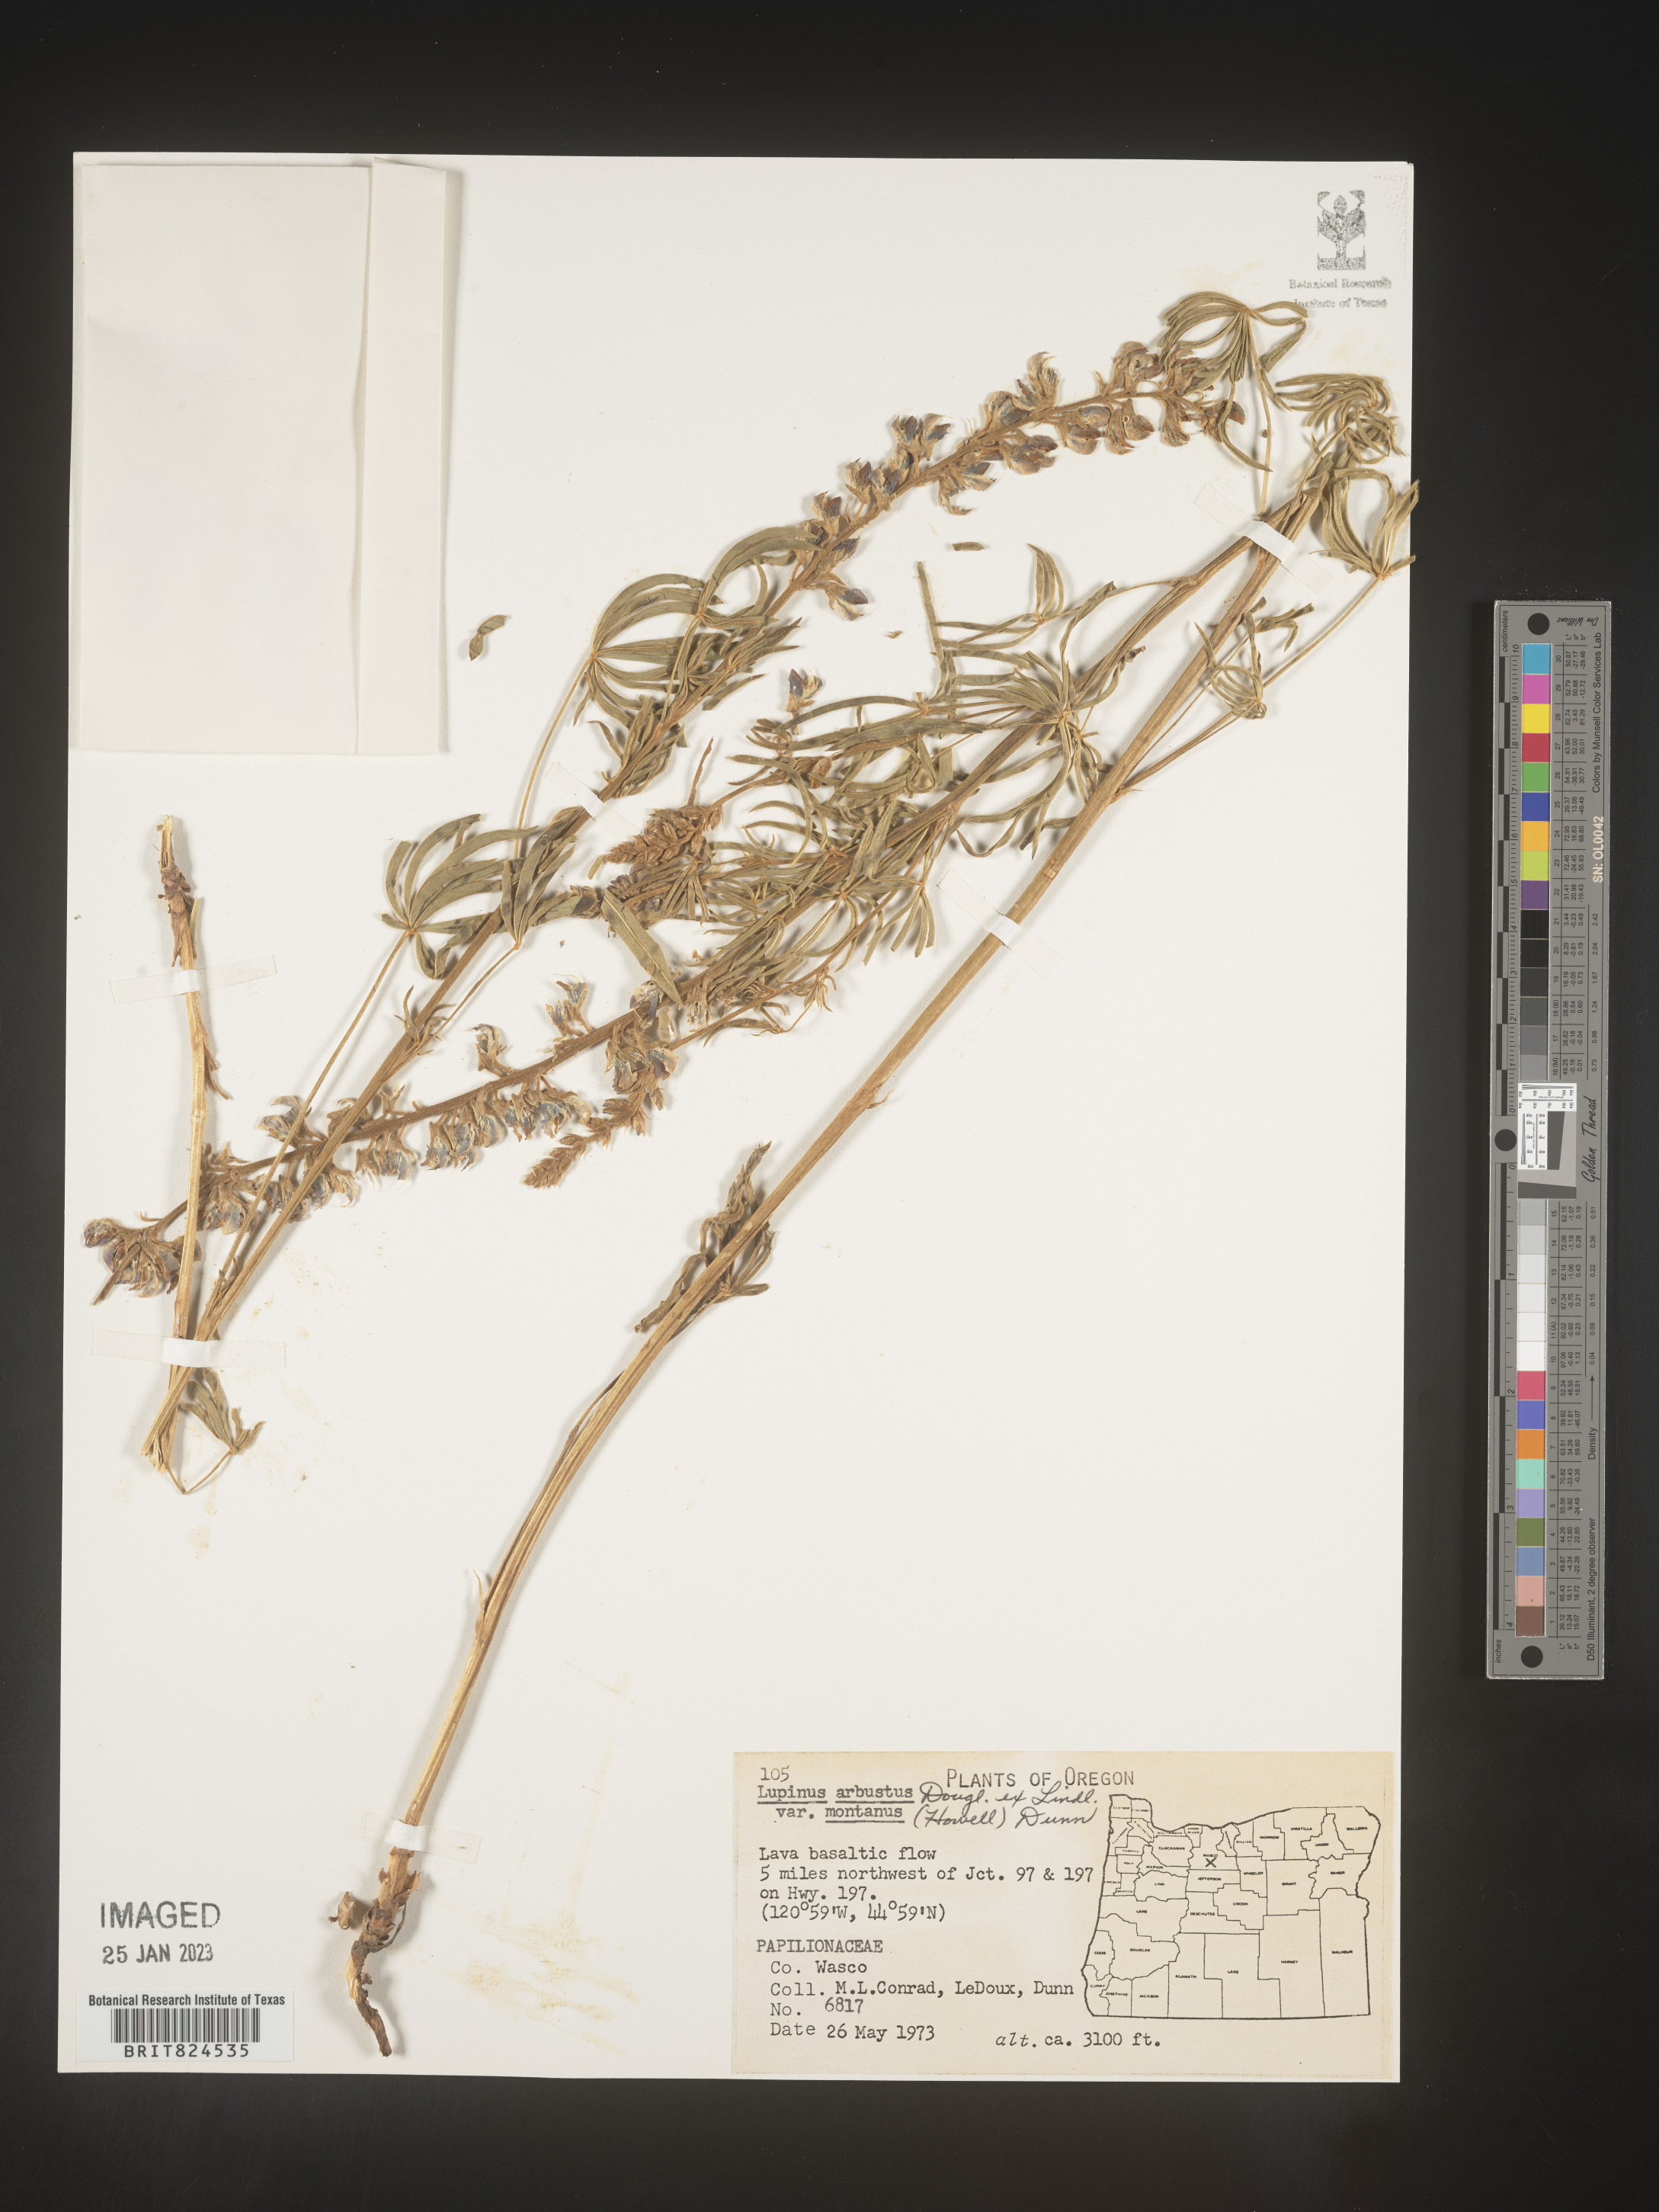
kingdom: Plantae
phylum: Tracheophyta
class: Magnoliopsida
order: Fabales
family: Fabaceae
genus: Lupinus
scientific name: Lupinus arbustus
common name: Montana lupine
